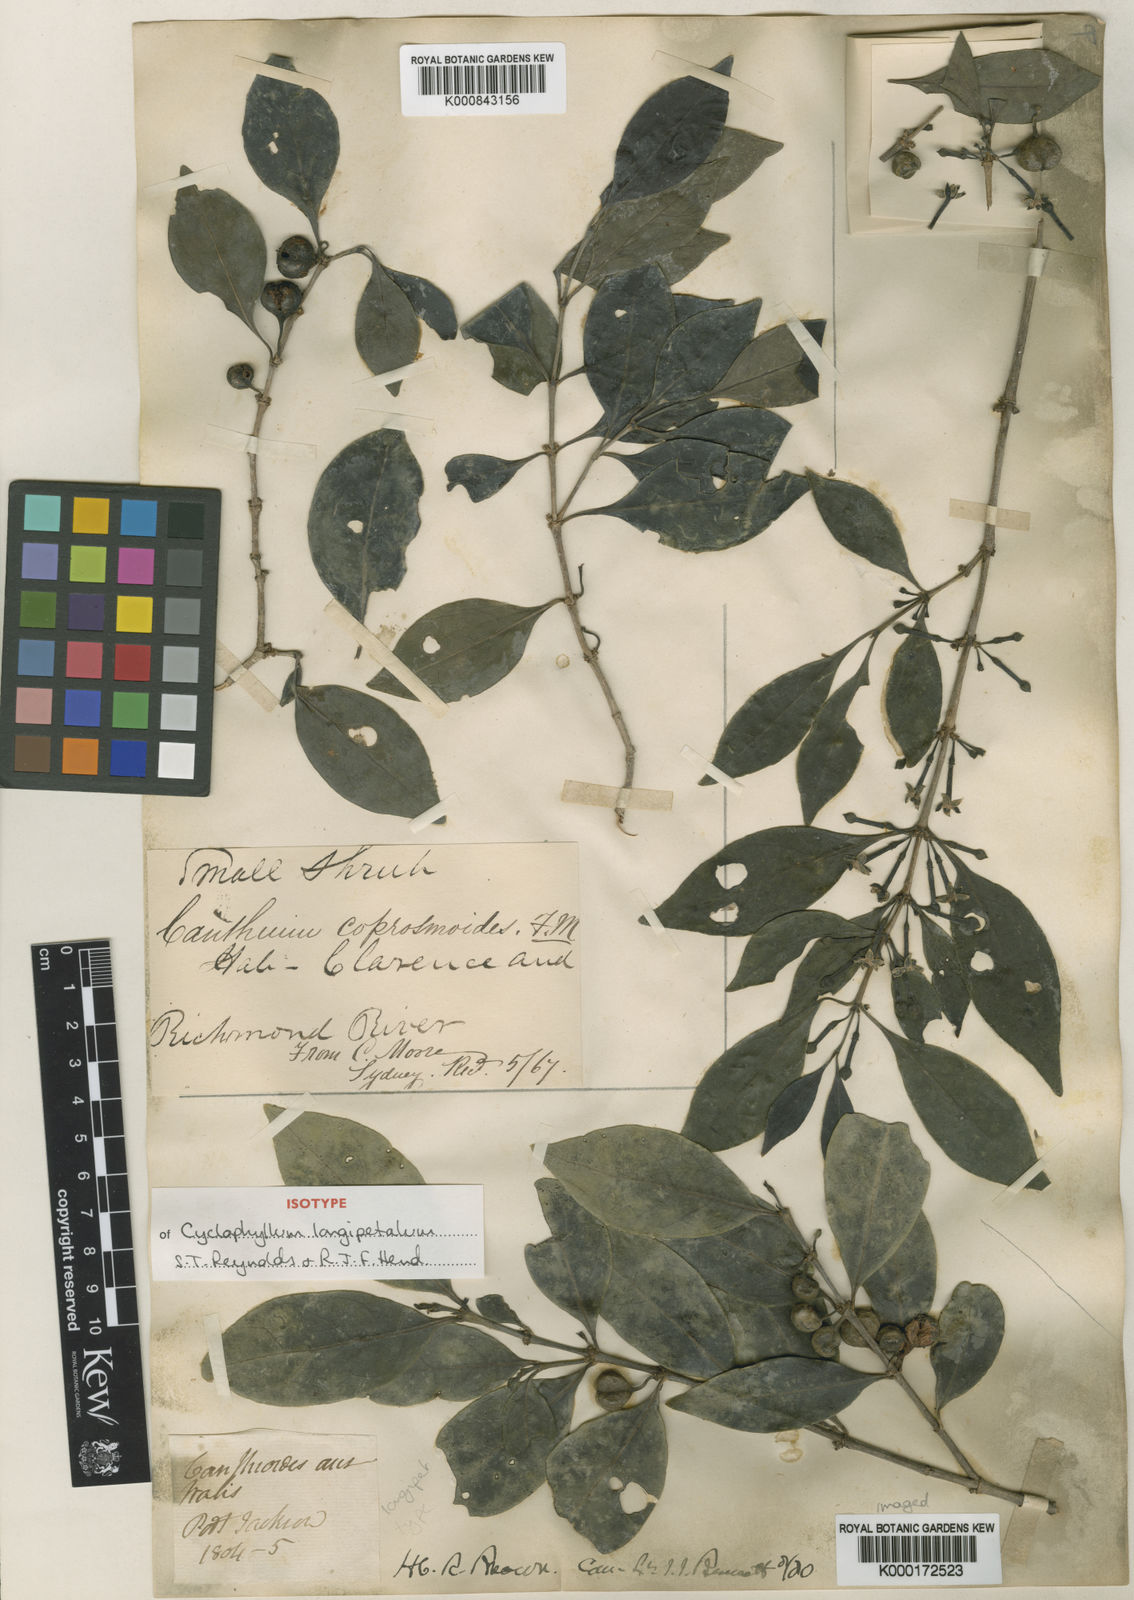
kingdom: Plantae
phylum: Tracheophyta
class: Magnoliopsida
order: Gentianales
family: Rubiaceae
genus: Cyclophyllum
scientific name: Cyclophyllum longipetalum
